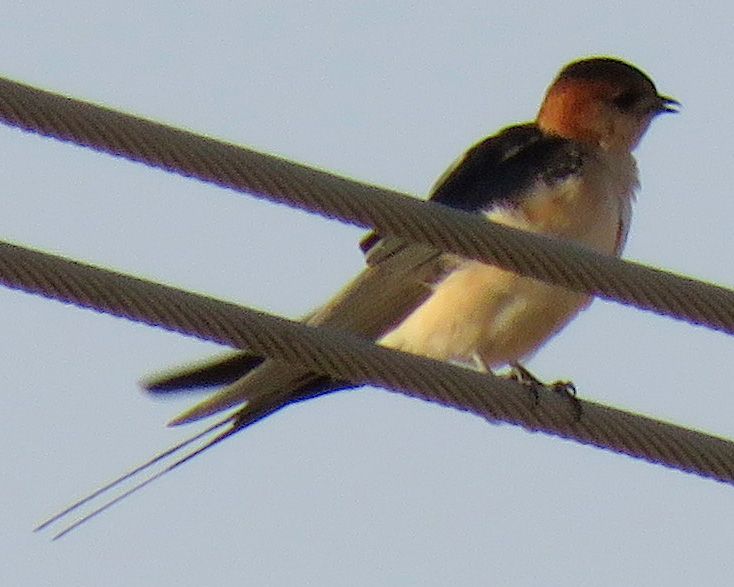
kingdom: Animalia
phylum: Chordata
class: Aves
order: Passeriformes
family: Hirundinidae
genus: Cecropis
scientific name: Cecropis daurica
